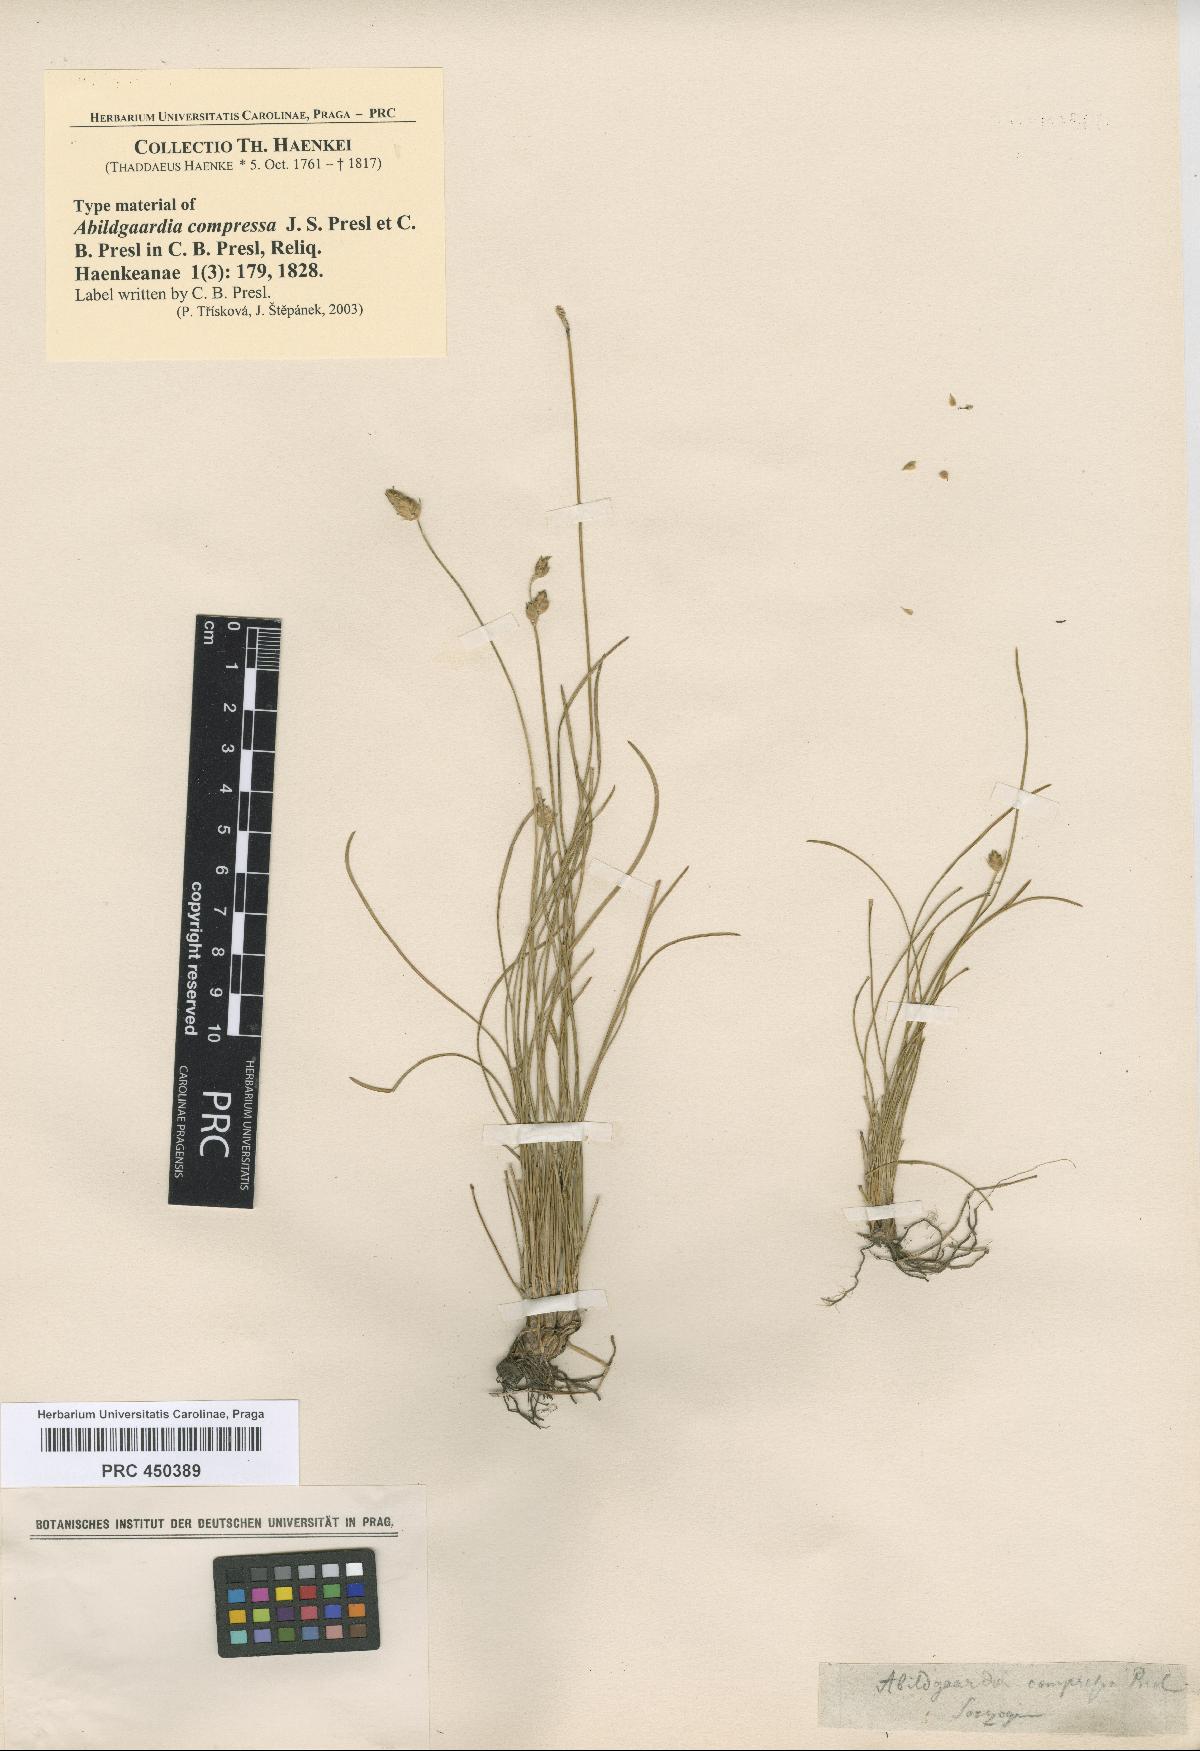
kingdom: Plantae
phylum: Tracheophyta
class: Liliopsida
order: Poales
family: Cyperaceae
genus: Abildgaardia
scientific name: Abildgaardia ovata
